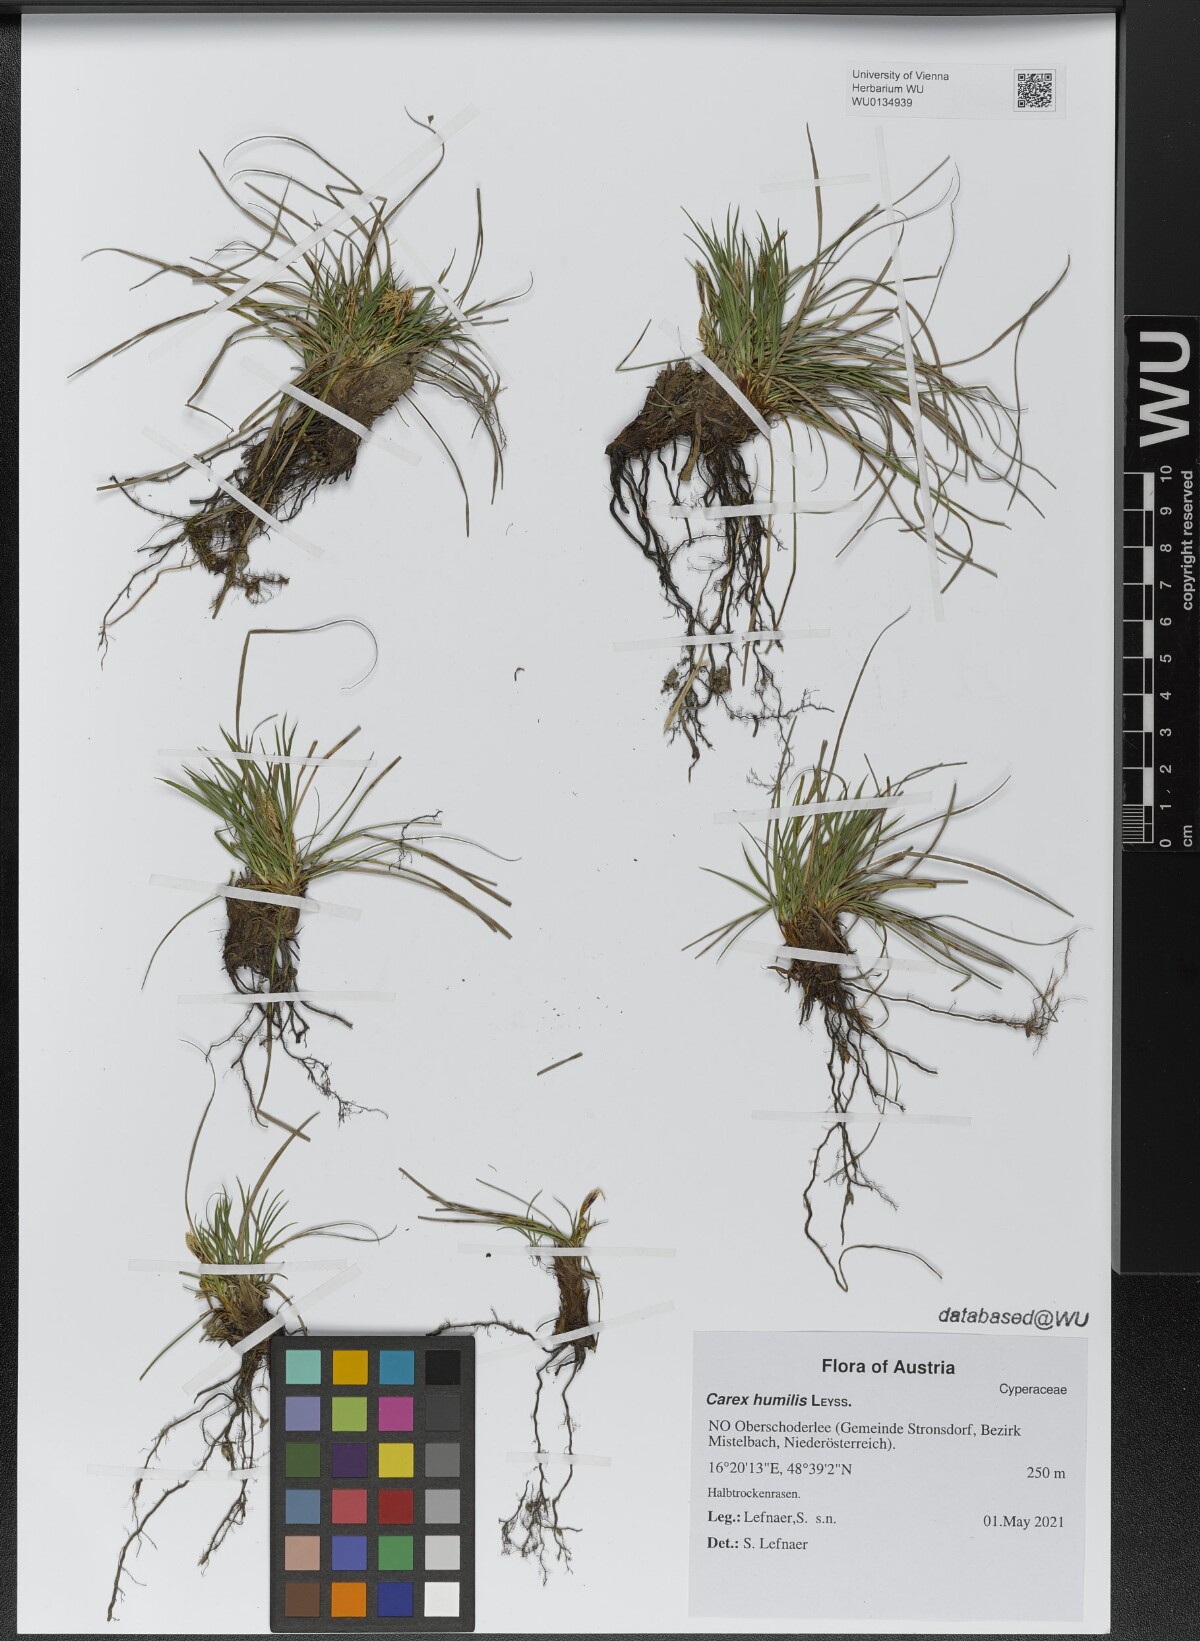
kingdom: Plantae
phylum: Tracheophyta
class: Liliopsida
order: Poales
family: Cyperaceae
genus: Carex
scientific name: Carex humilis
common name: Dwarf sedge
